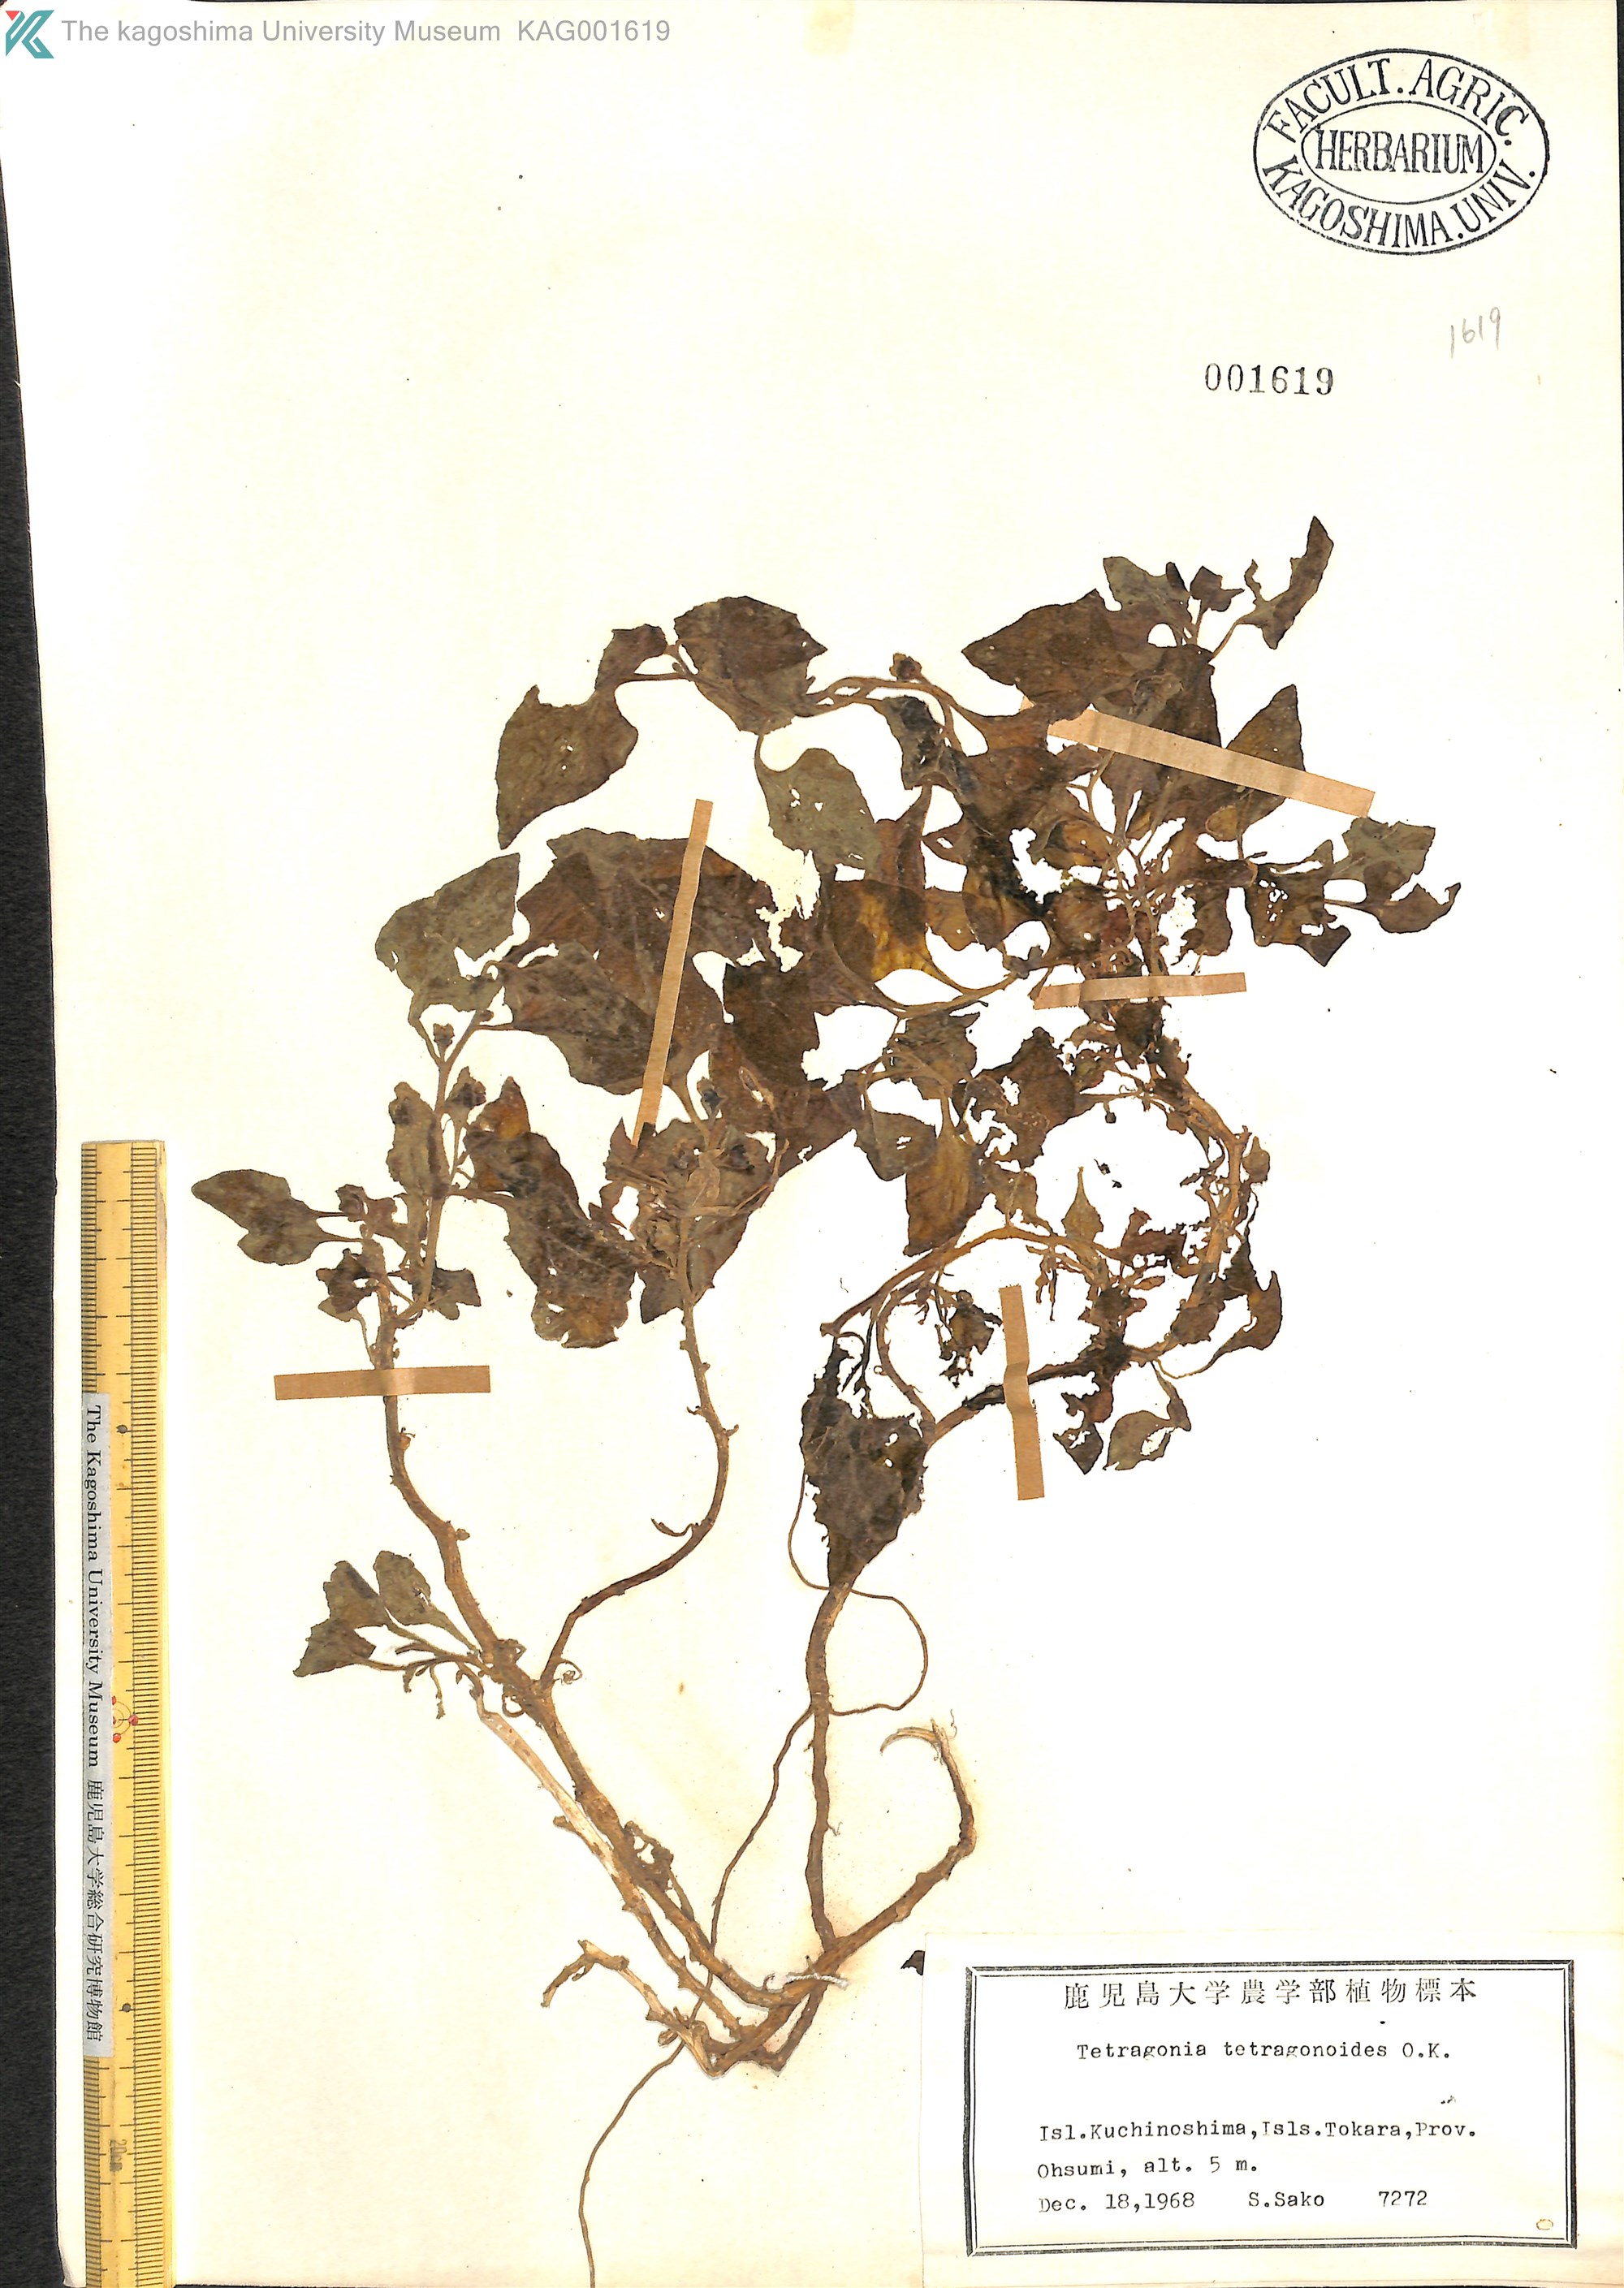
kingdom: Plantae
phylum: Tracheophyta
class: Magnoliopsida
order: Caryophyllales
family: Aizoaceae
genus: Tetragonia
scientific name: Tetragonia tetragonoides
